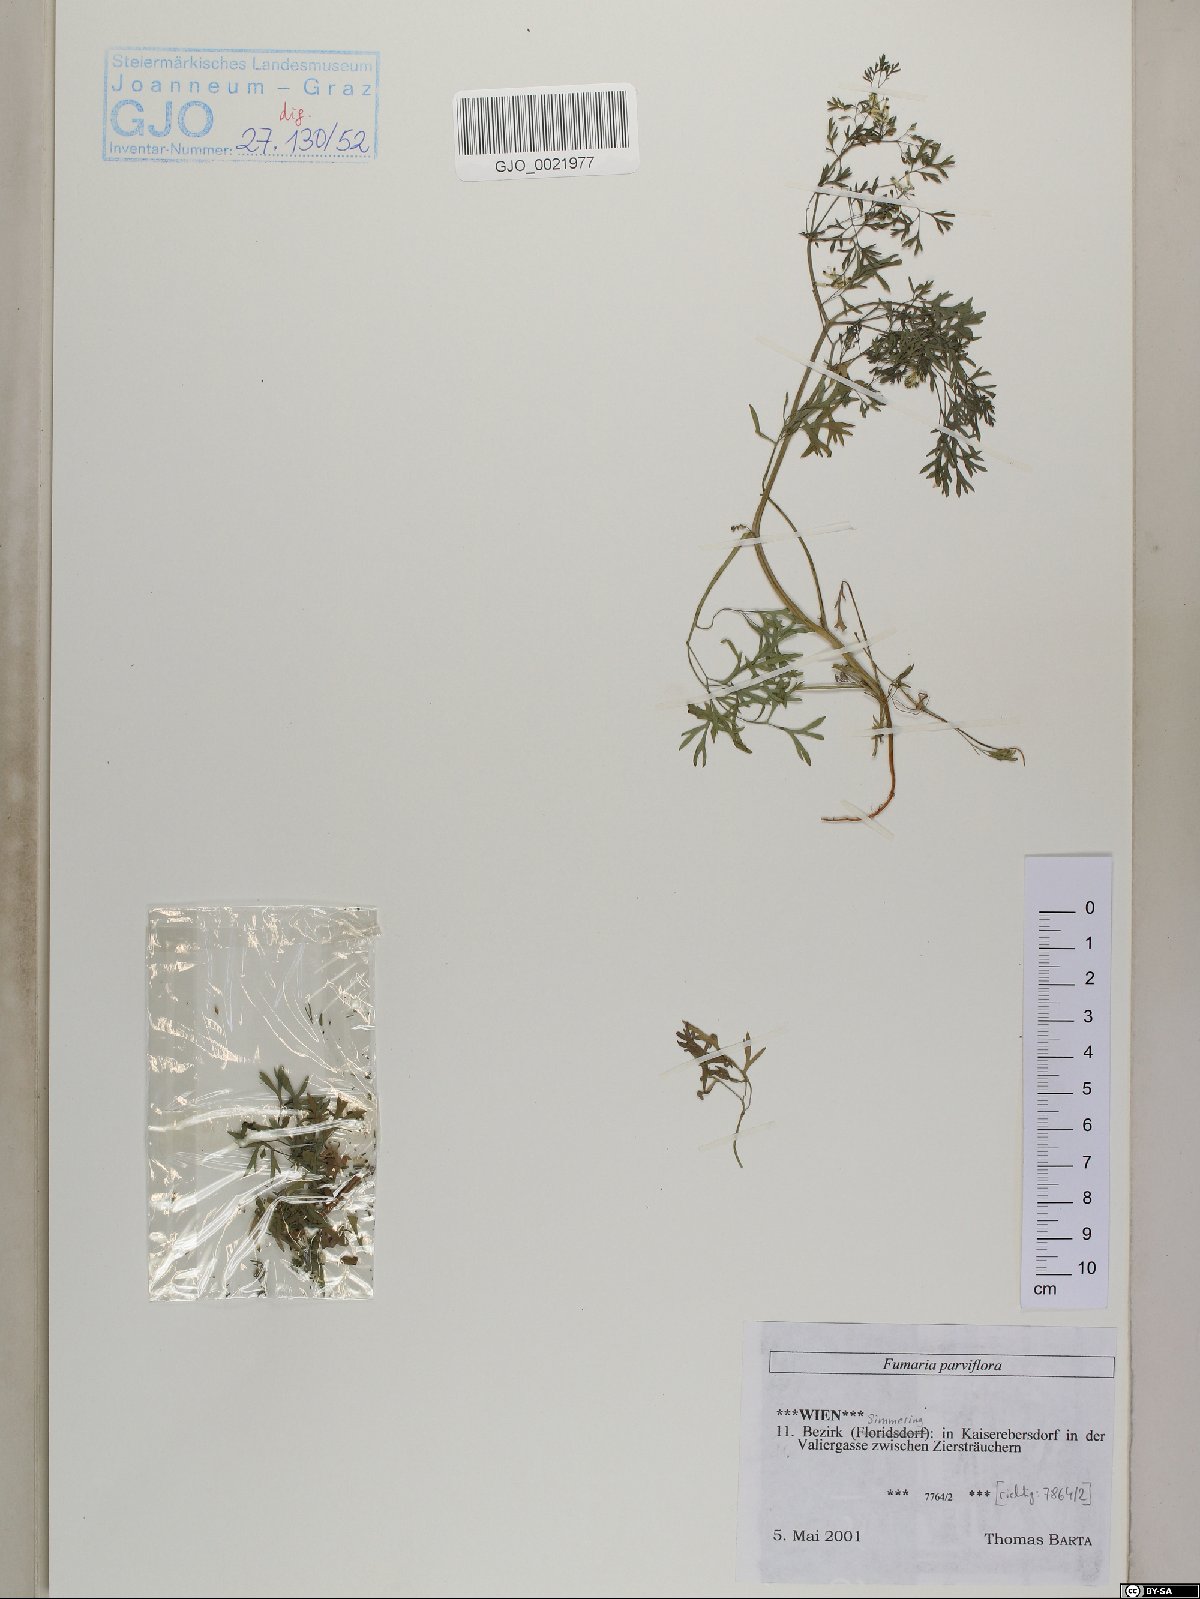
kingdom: Plantae
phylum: Tracheophyta
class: Magnoliopsida
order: Ranunculales
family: Papaveraceae
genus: Fumaria
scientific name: Fumaria parviflora
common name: Fine-leaved fumitory
